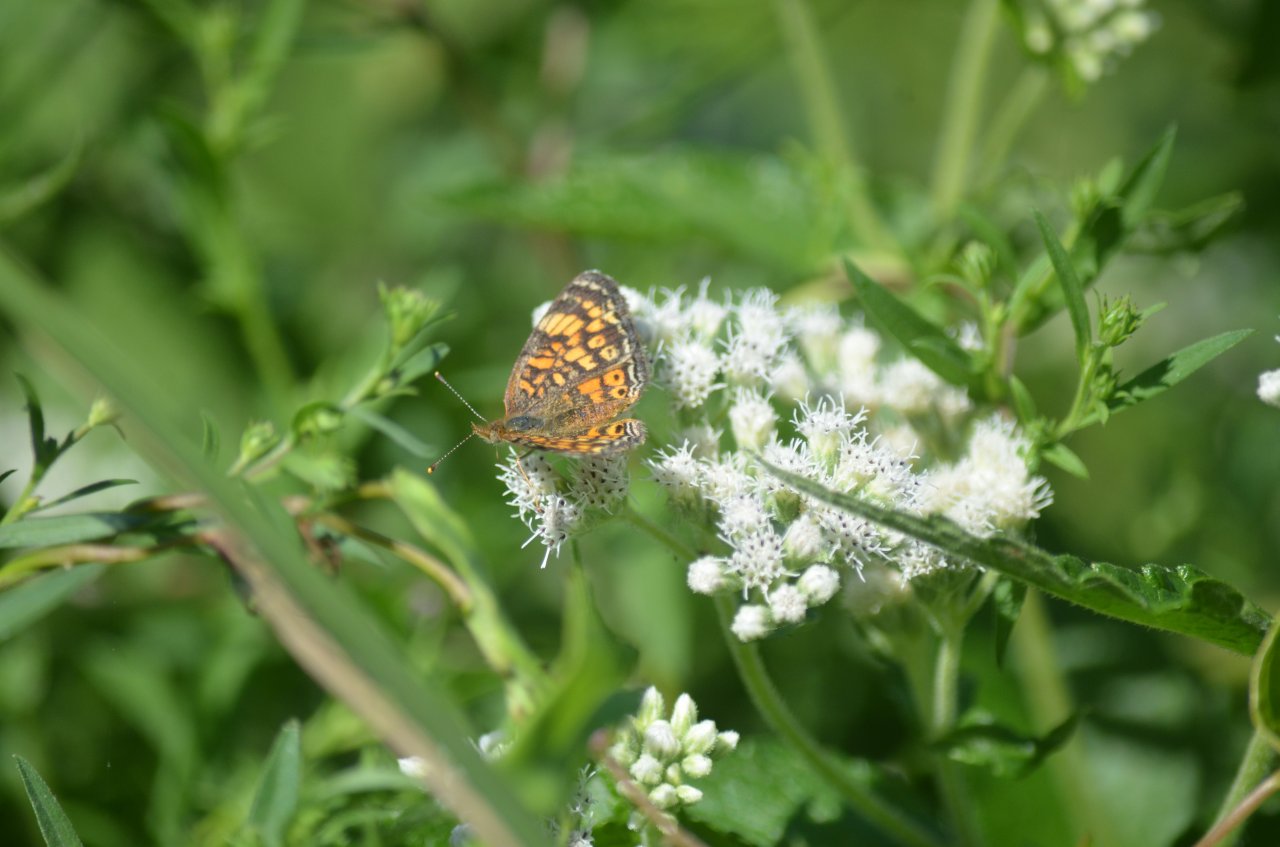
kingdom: Animalia
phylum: Arthropoda
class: Insecta
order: Lepidoptera
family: Nymphalidae
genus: Phyciodes
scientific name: Phyciodes tharos
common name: Pearl Crescent
